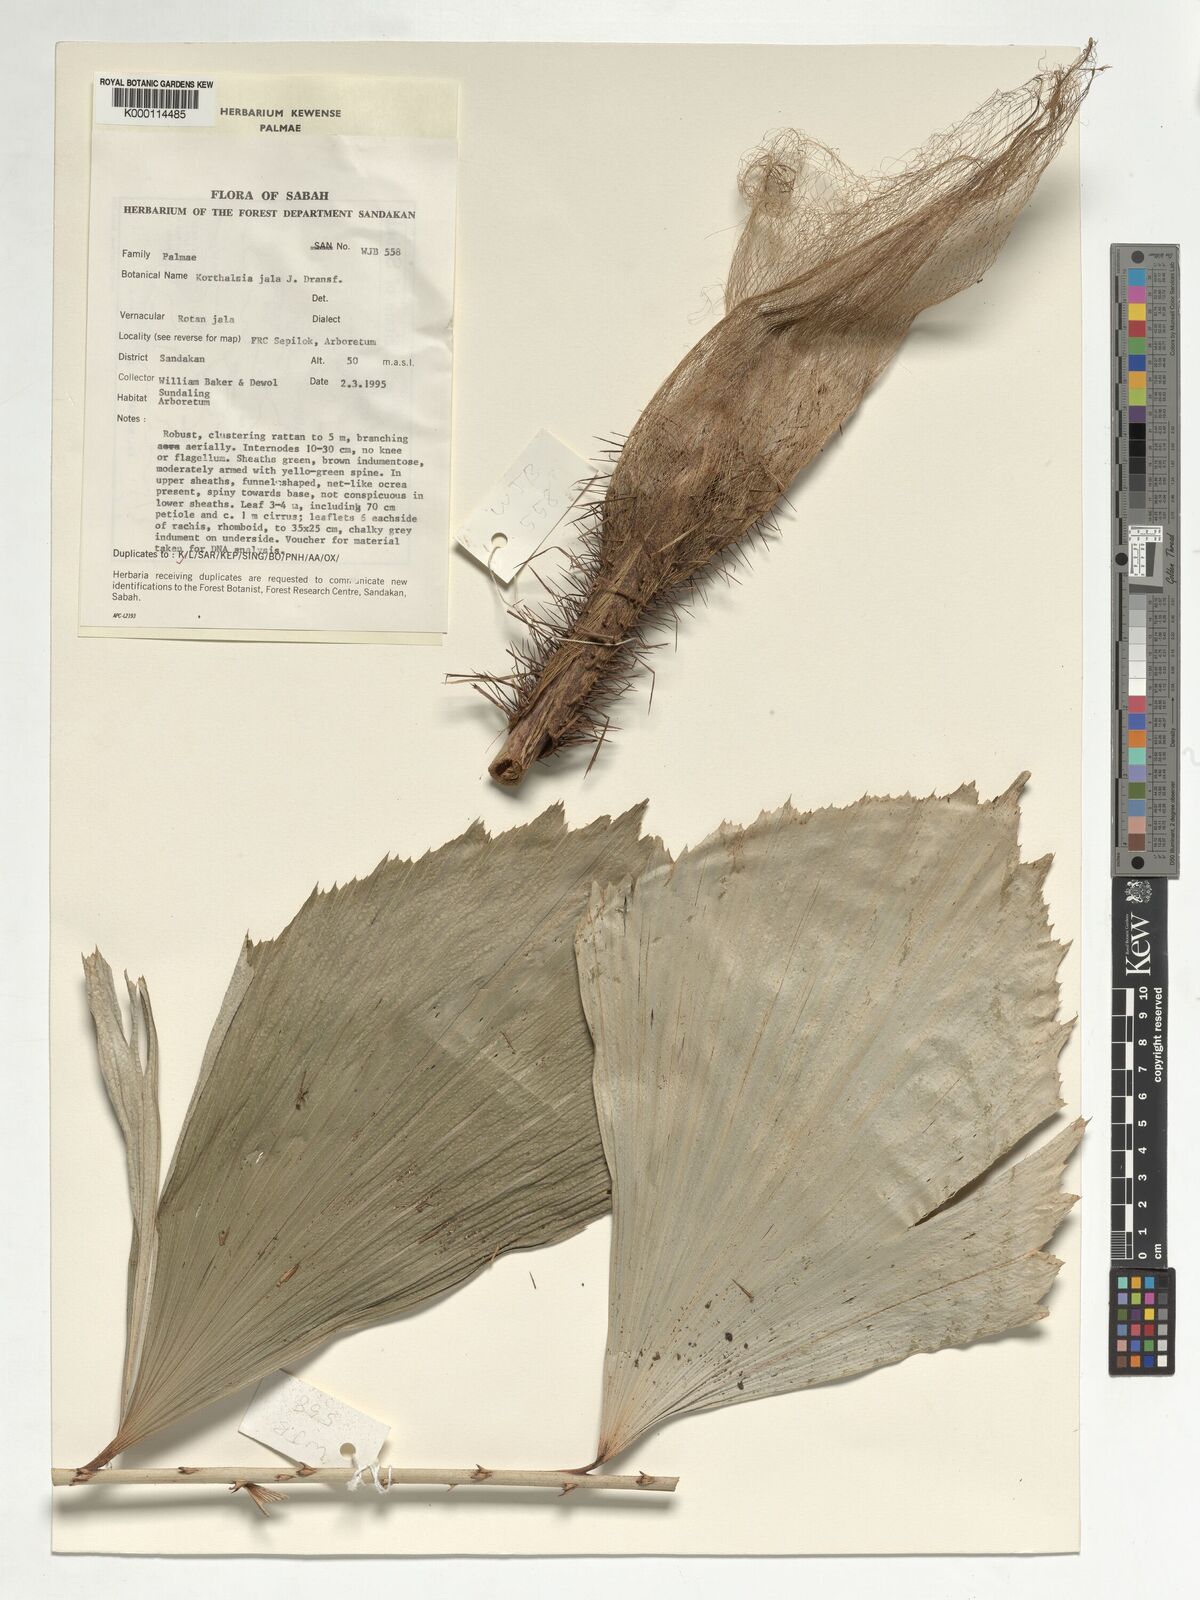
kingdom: Plantae
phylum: Tracheophyta
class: Liliopsida
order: Arecales
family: Arecaceae
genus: Korthalsia
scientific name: Korthalsia jala
